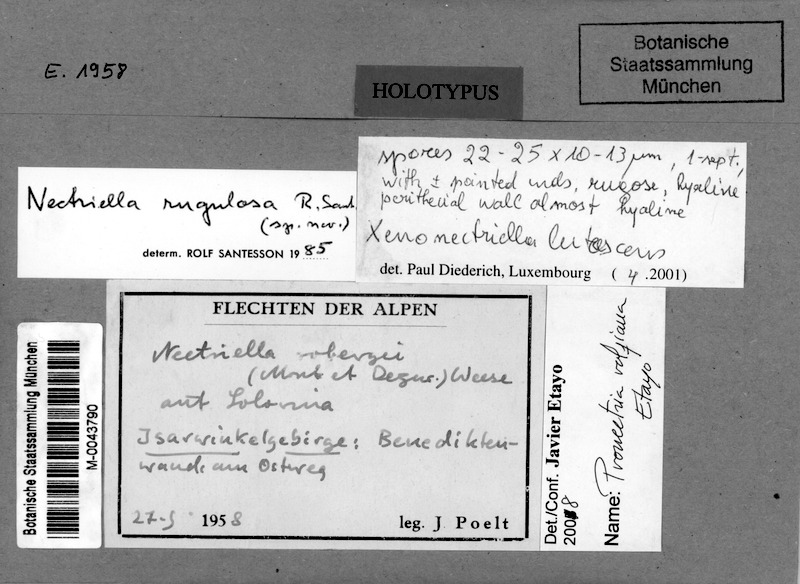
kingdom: Fungi
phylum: Ascomycota
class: Sordariomycetes
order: Hypocreales
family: Bionectriaceae
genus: Pronectria
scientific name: Pronectria rolfiana
